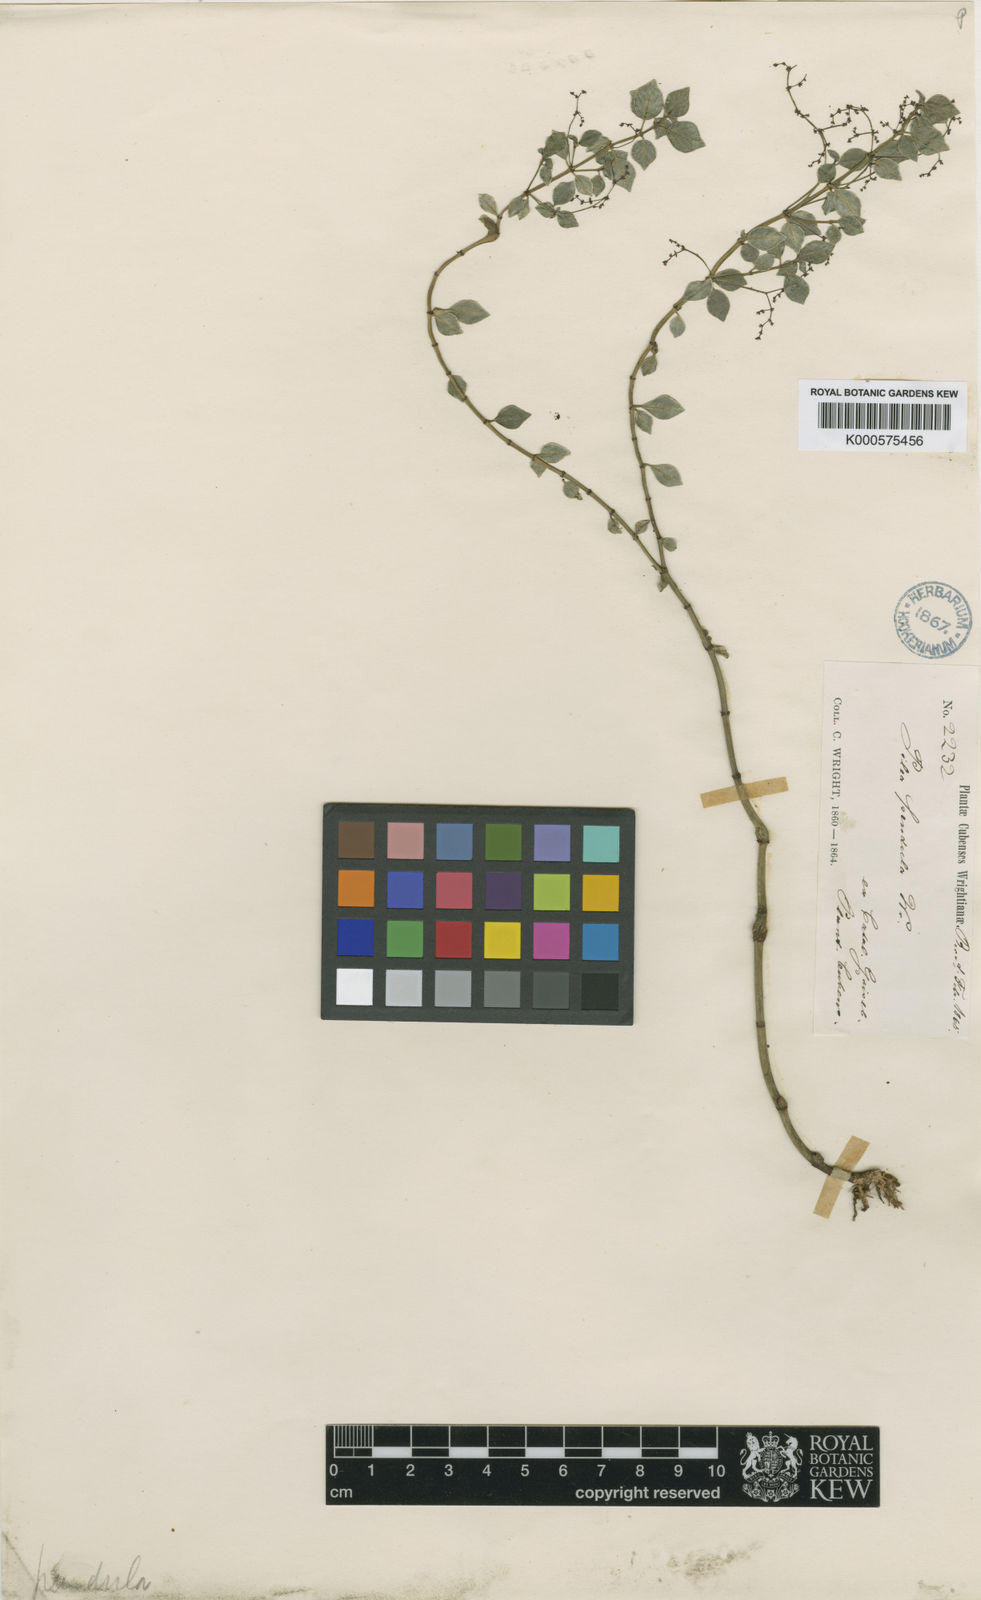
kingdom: Plantae
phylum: Tracheophyta
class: Magnoliopsida
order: Rosales
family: Urticaceae
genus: Pilea
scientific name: Pilea libanensis
